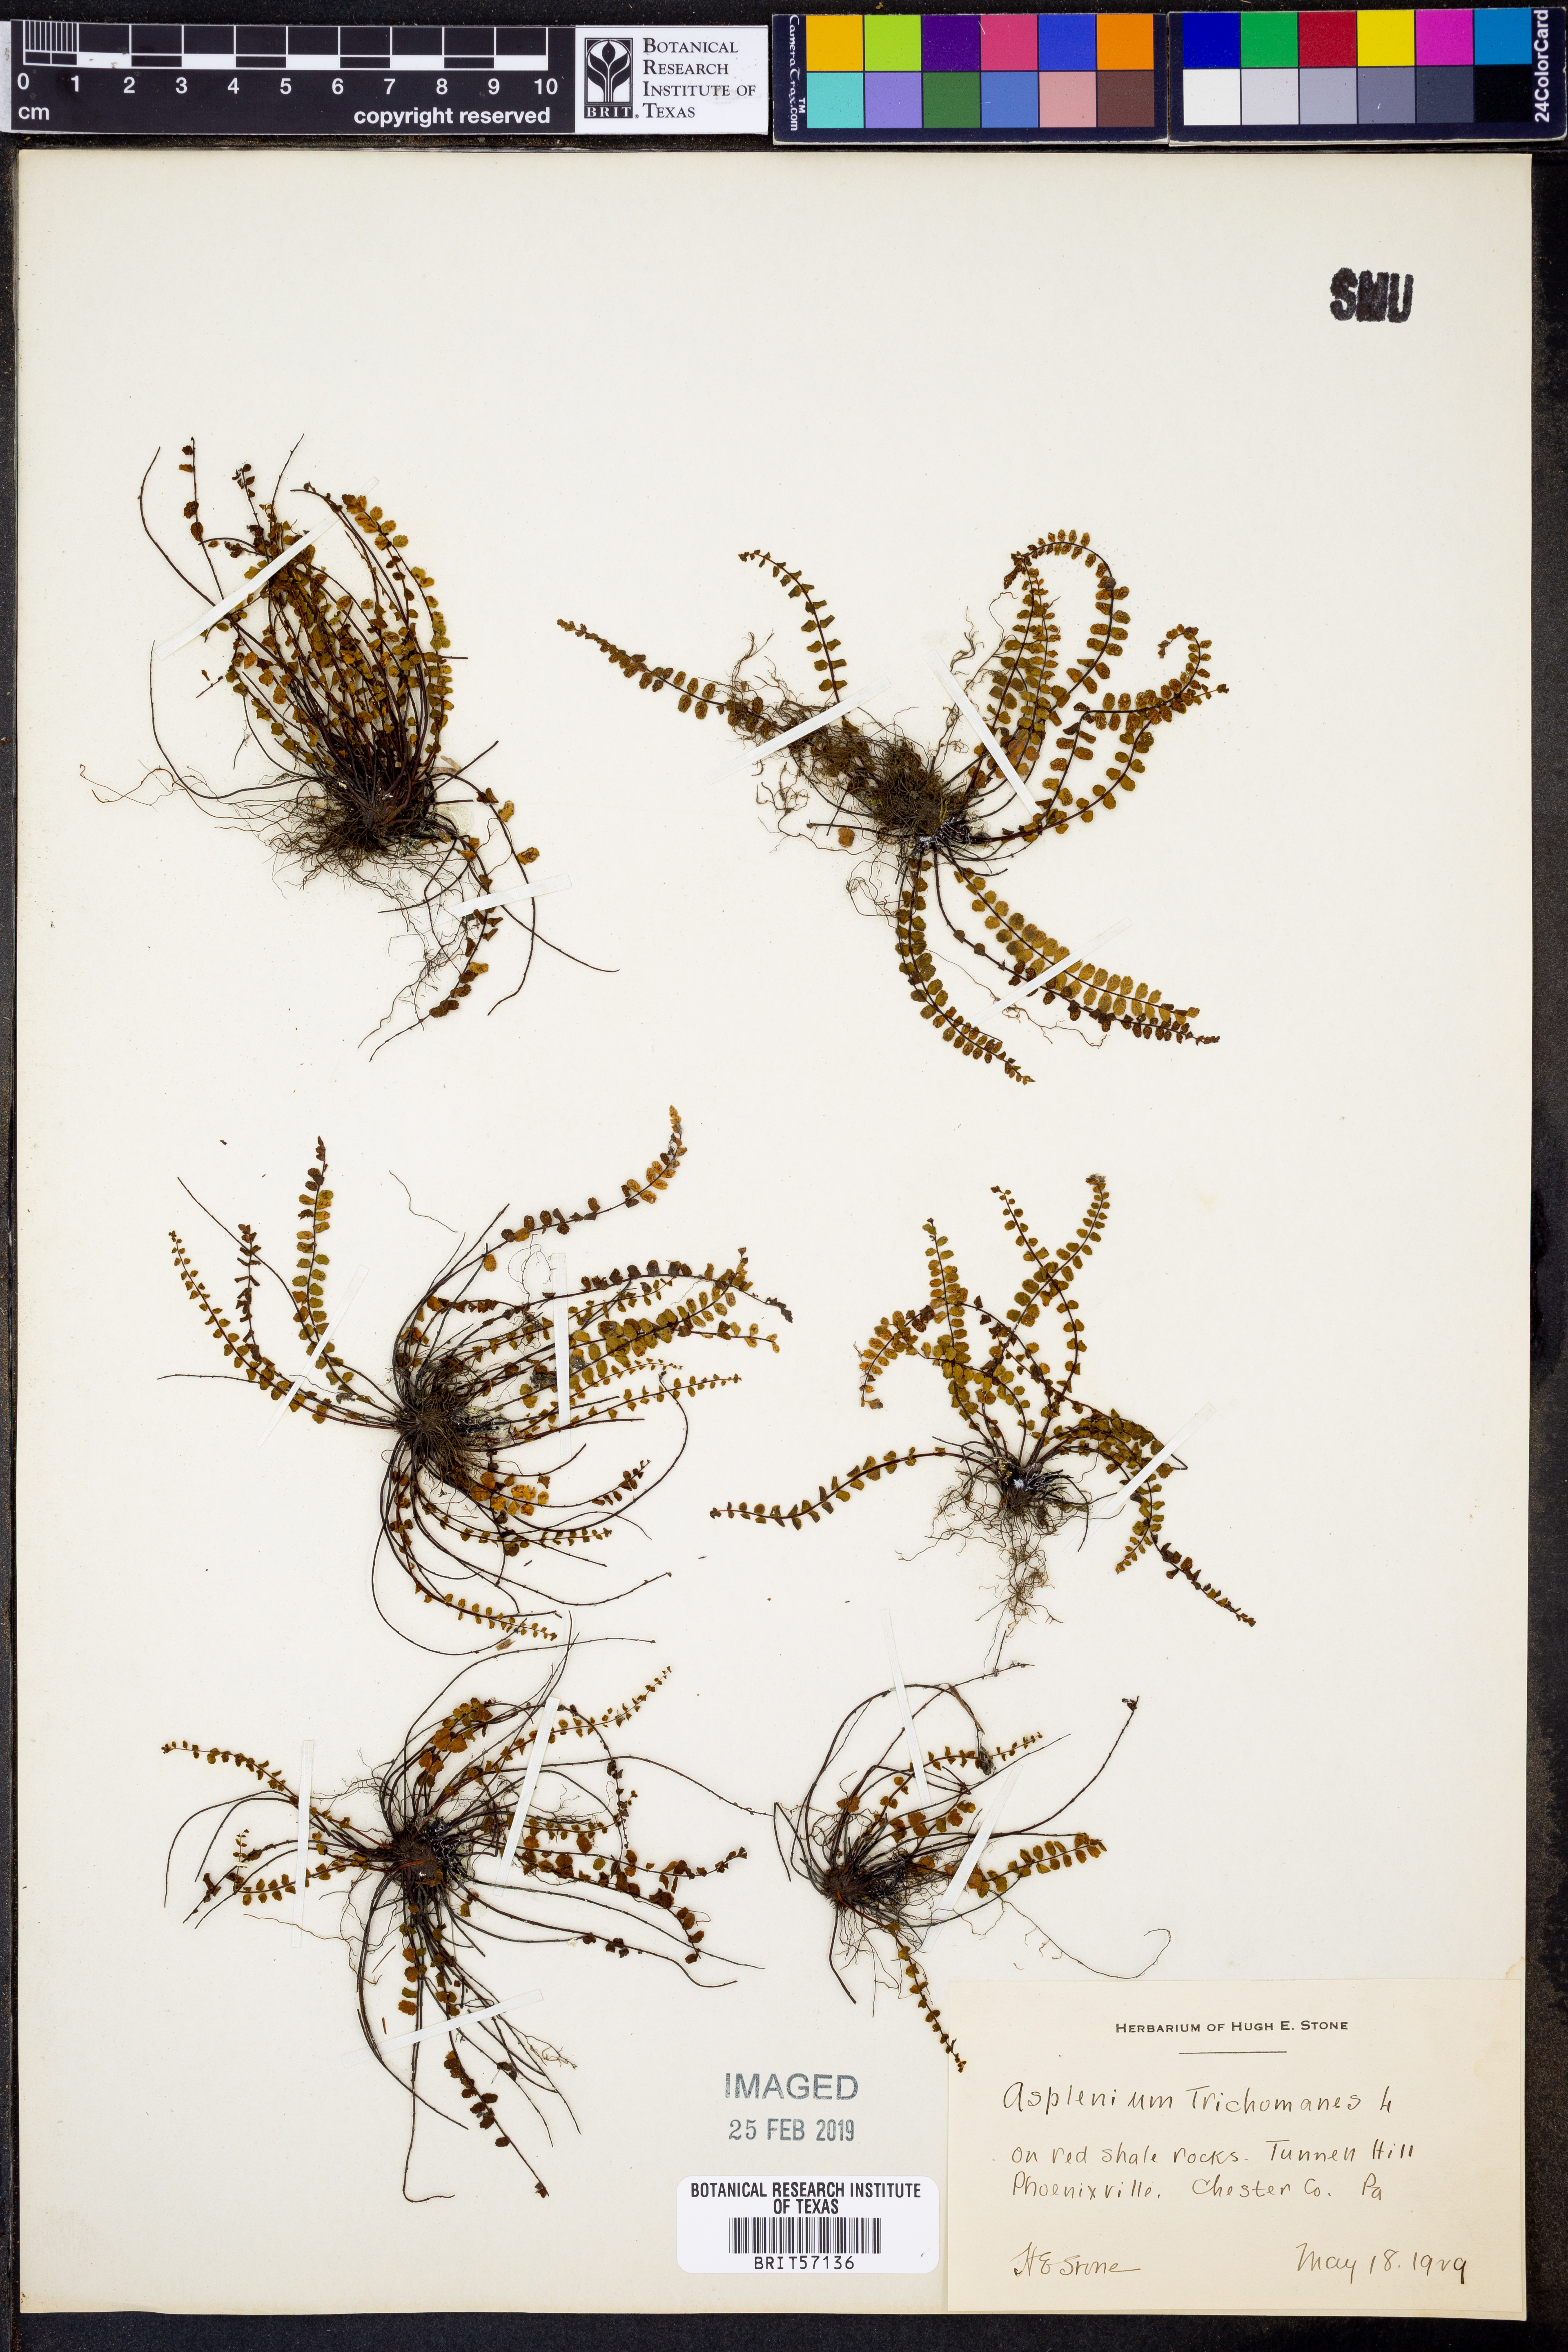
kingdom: Plantae
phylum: Tracheophyta
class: Polypodiopsida
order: Polypodiales
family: Aspleniaceae
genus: Asplenium
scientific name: Asplenium trichomanes
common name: Maidenhair spleenwort
